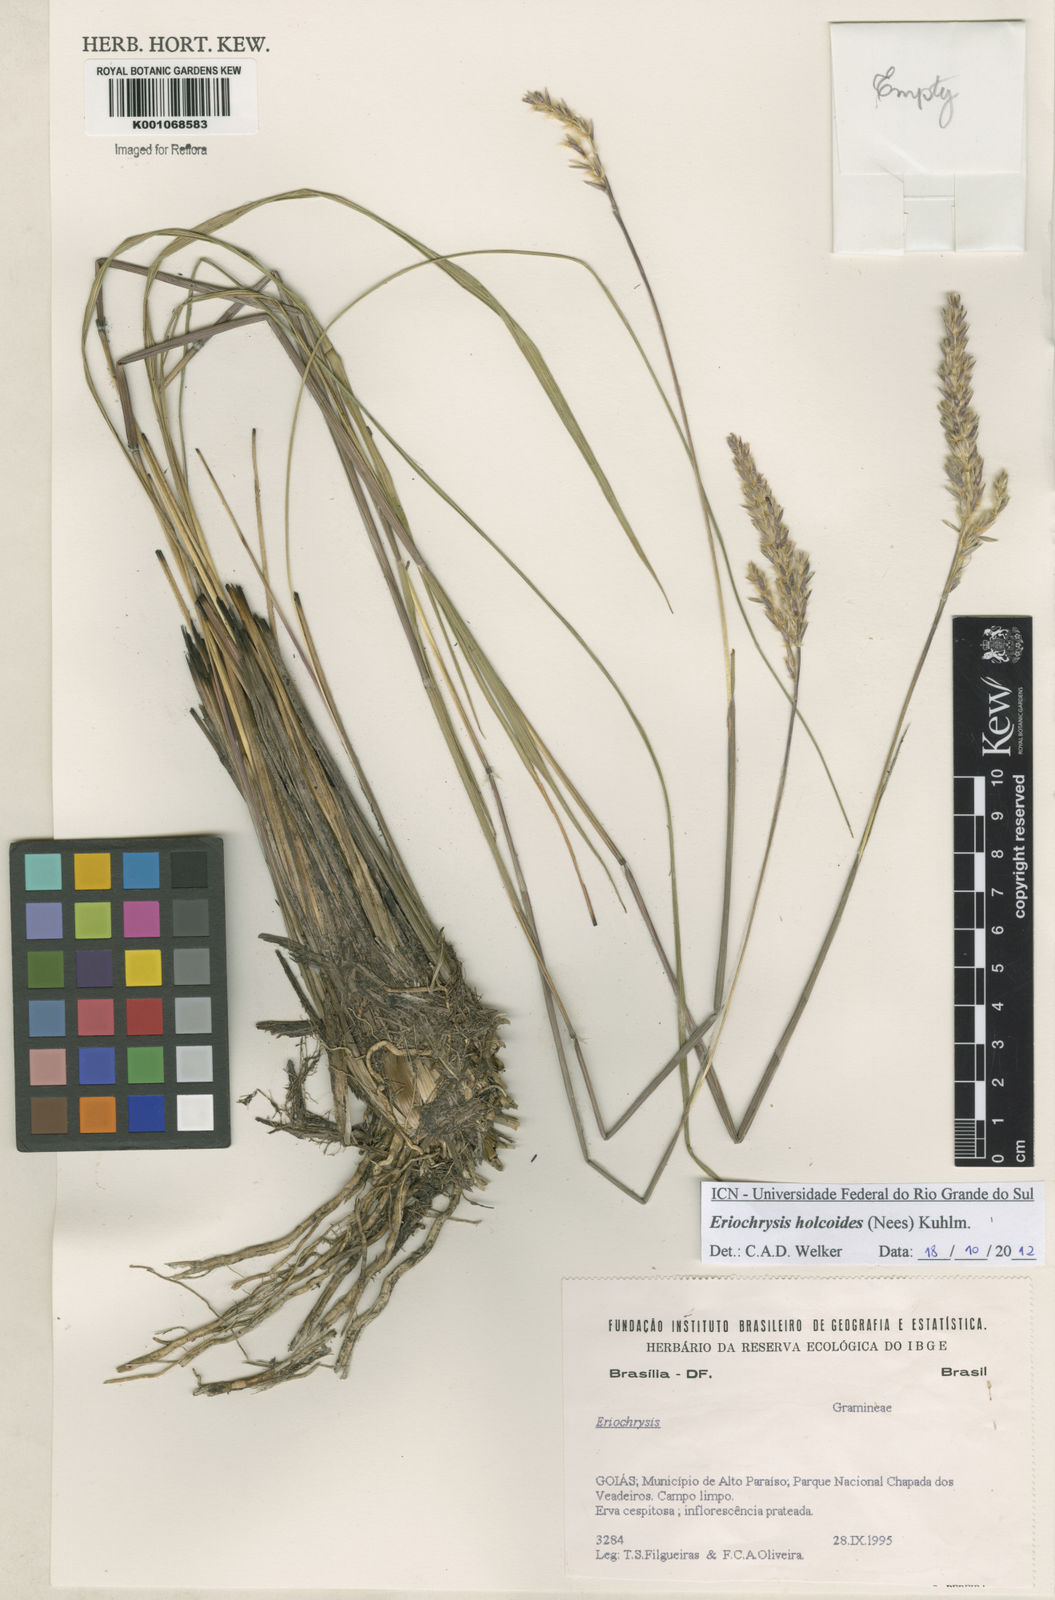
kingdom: Plantae
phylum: Tracheophyta
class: Liliopsida
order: Poales
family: Poaceae
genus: Eriochrysis
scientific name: Eriochrysis holcoides
